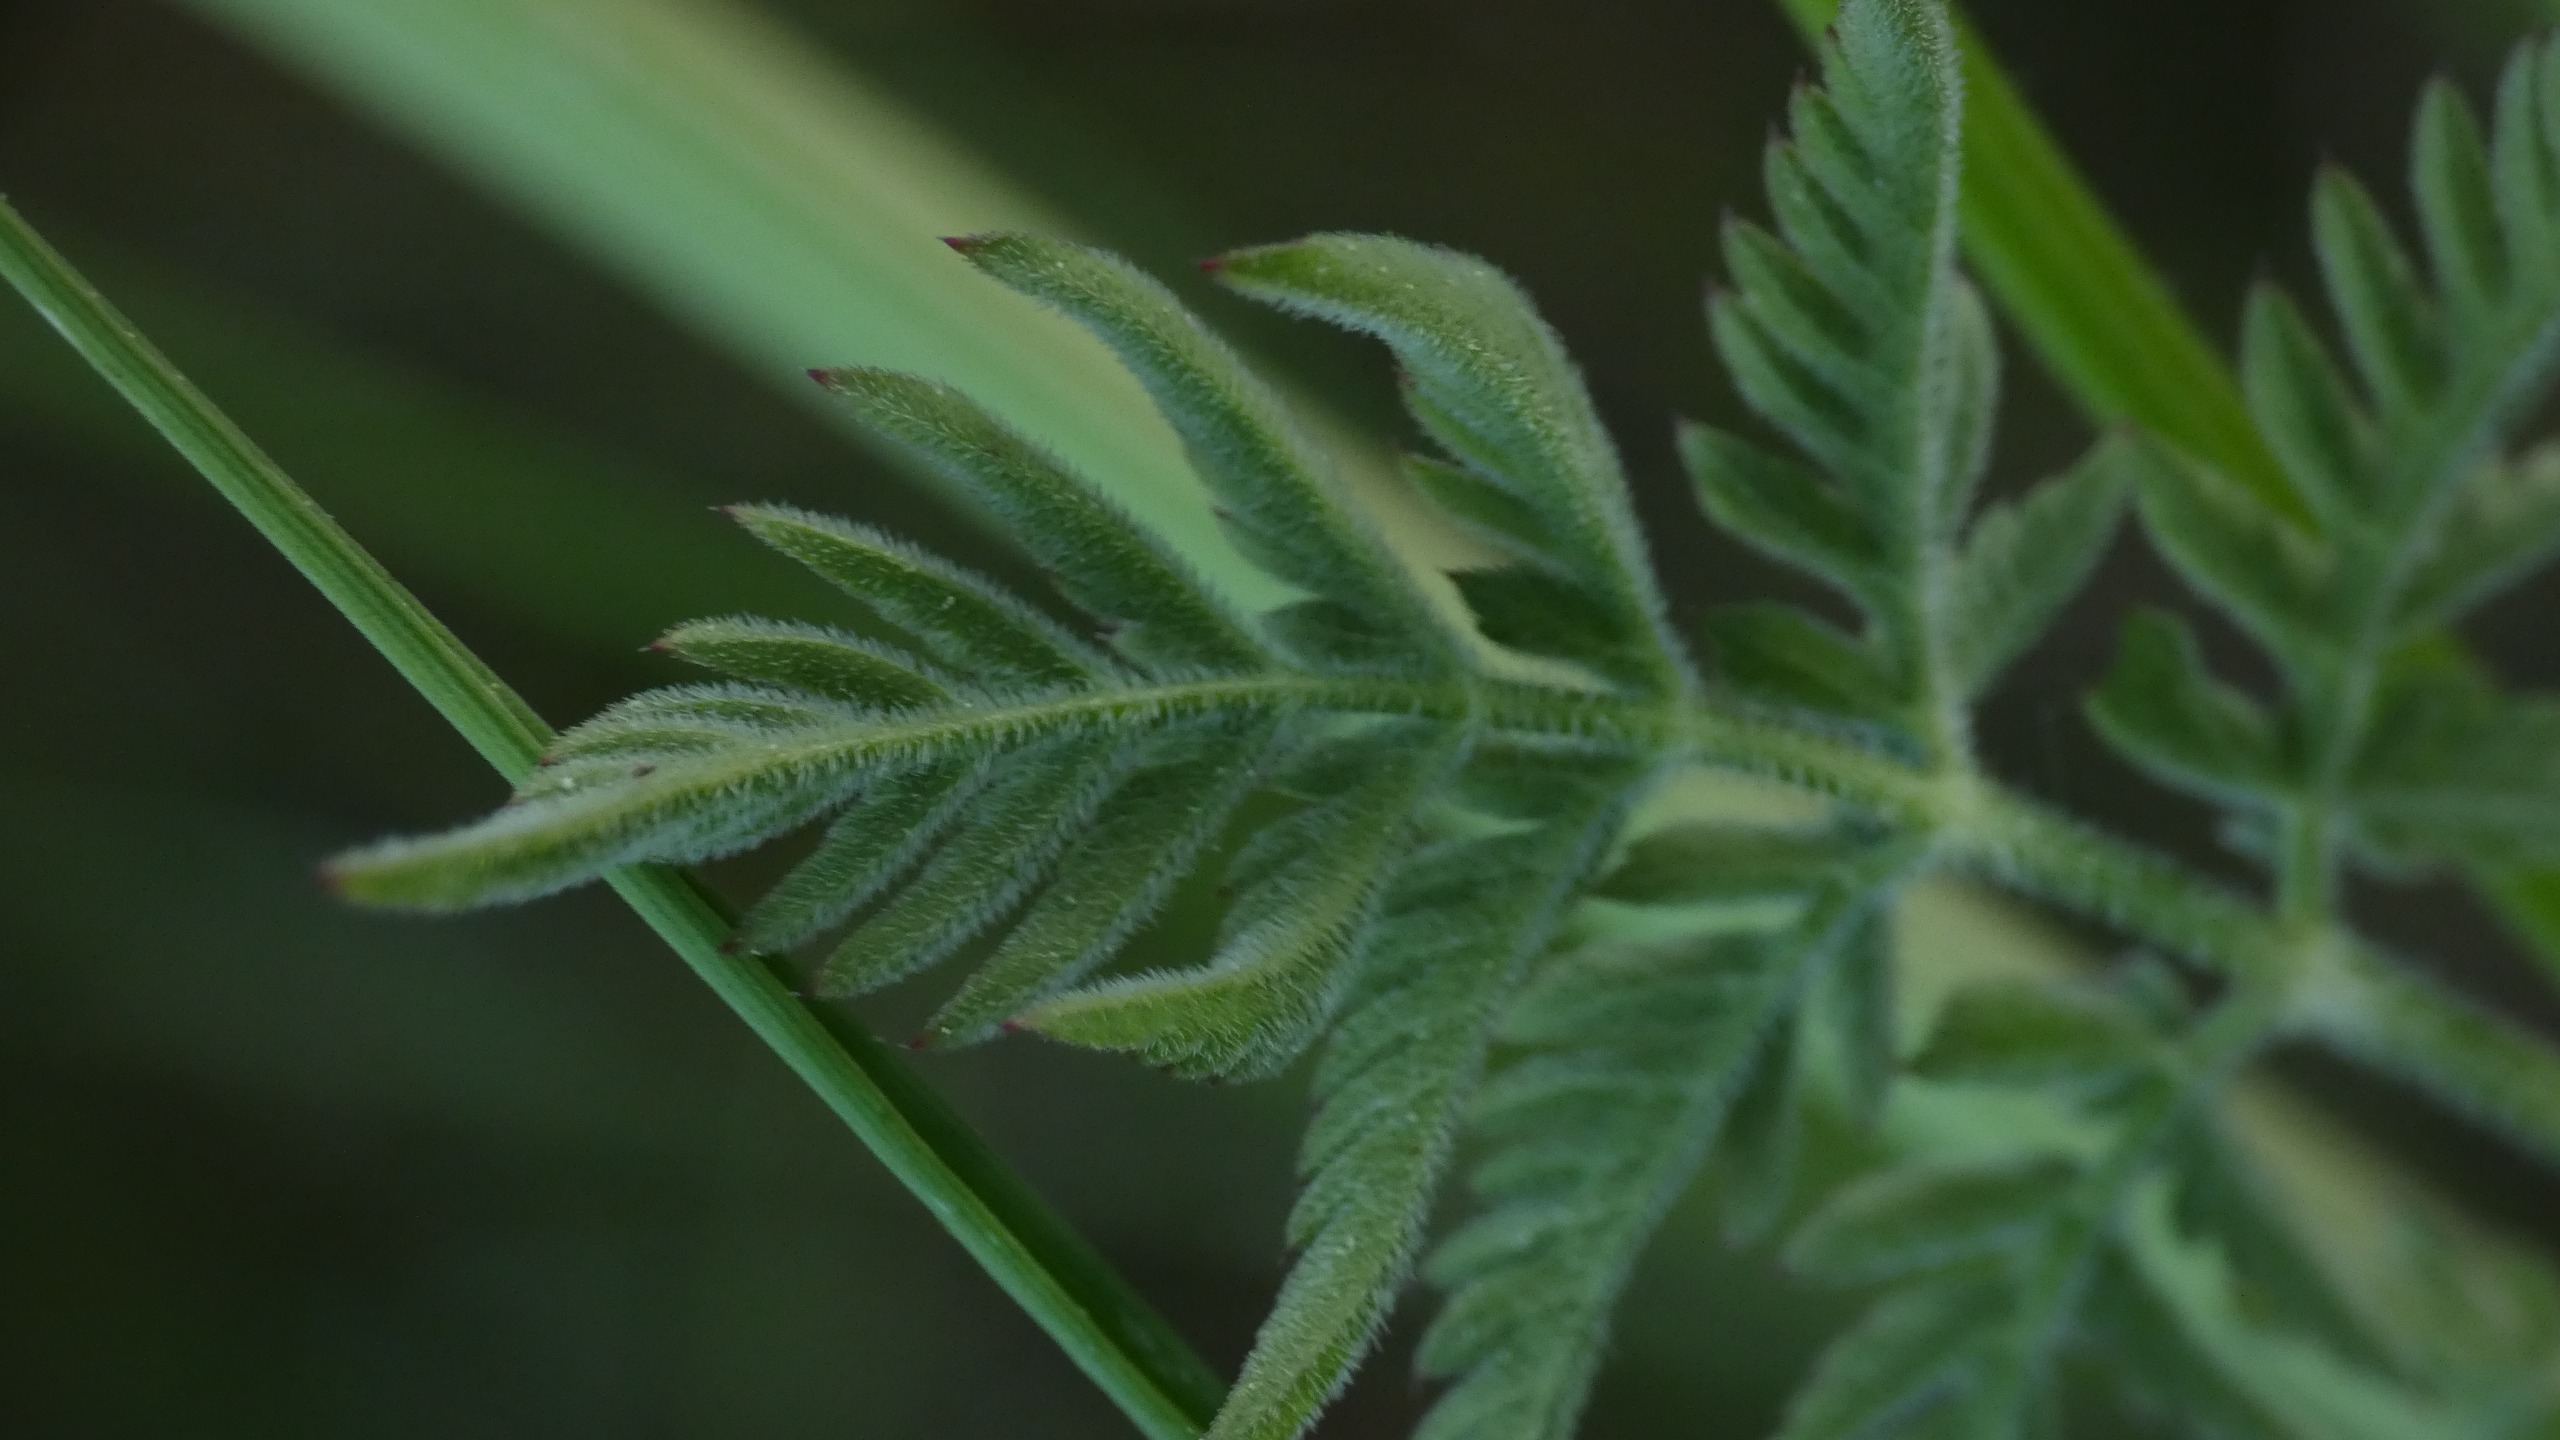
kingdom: Plantae
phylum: Tracheophyta
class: Magnoliopsida
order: Apiales
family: Apiaceae
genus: Anthriscus
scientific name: Anthriscus sylvestris
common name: Vild kørvel
